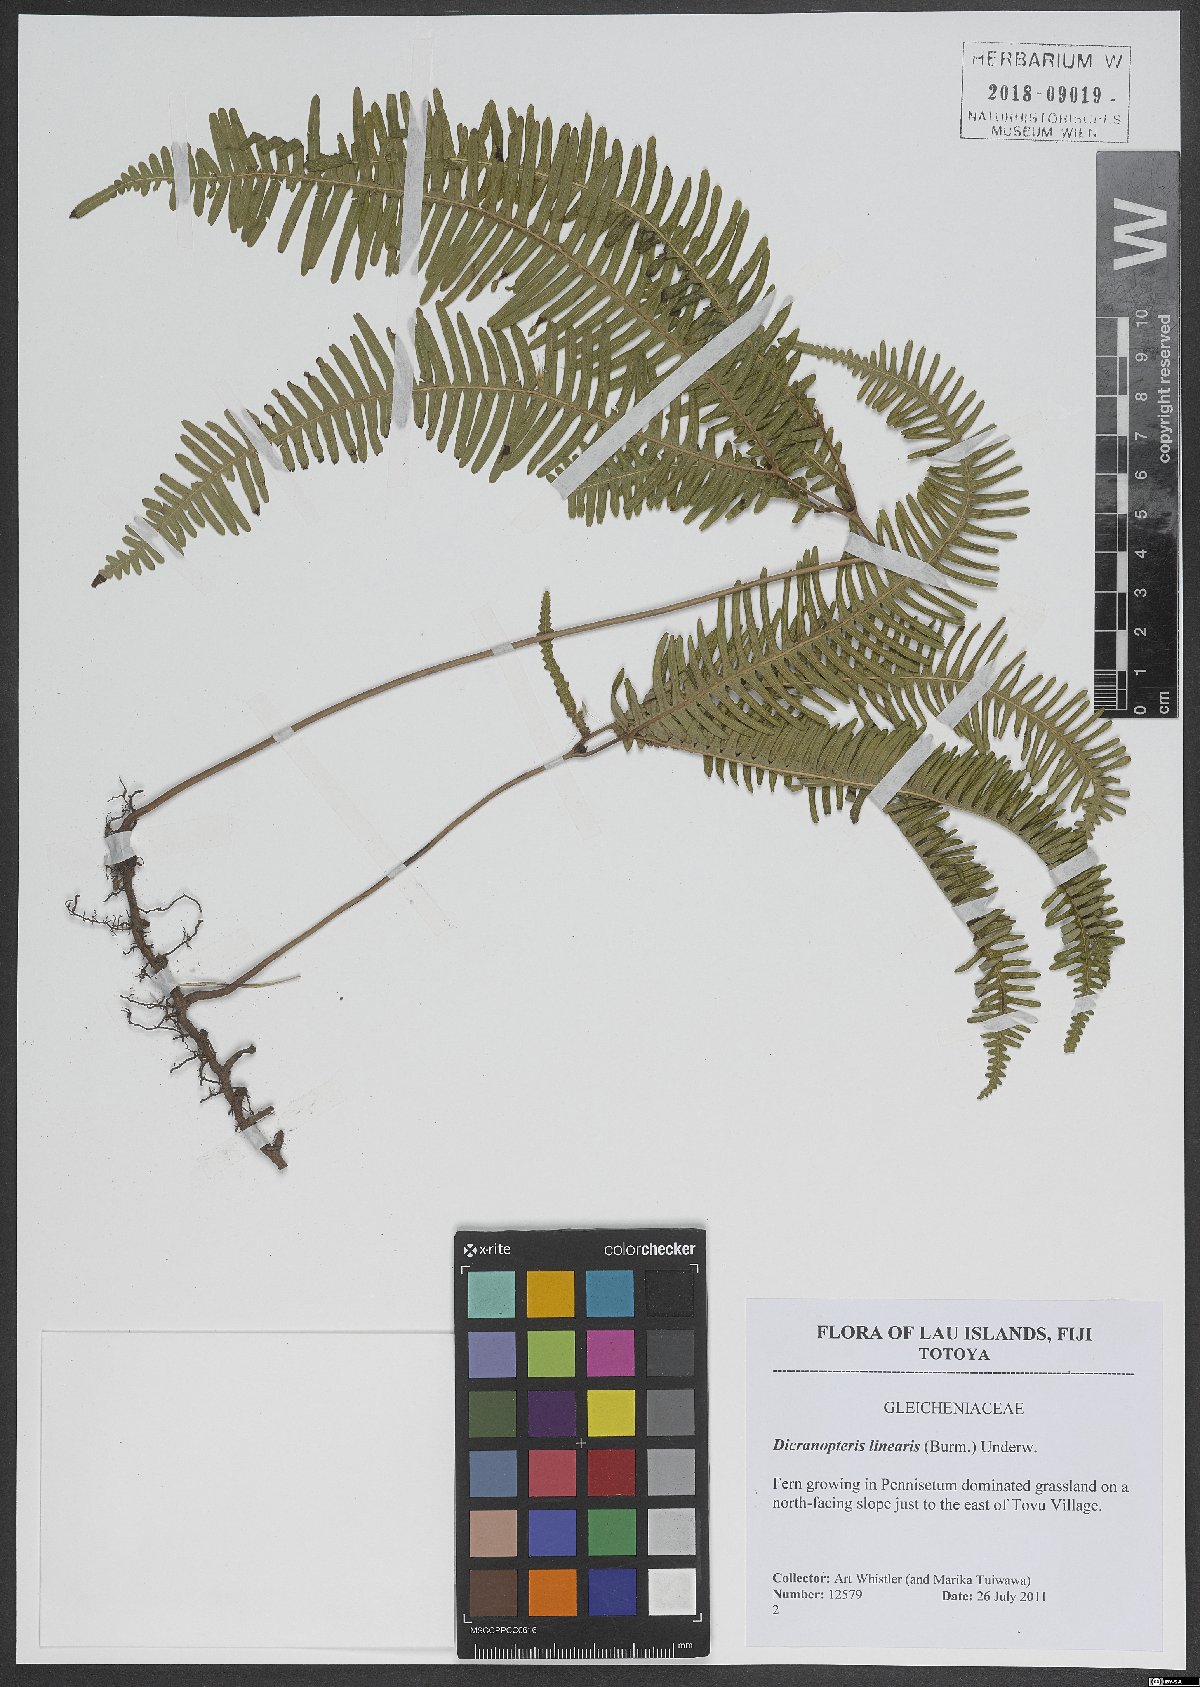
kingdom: Plantae
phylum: Tracheophyta
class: Polypodiopsida
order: Gleicheniales
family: Gleicheniaceae
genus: Dicranopteris
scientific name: Dicranopteris linearis
